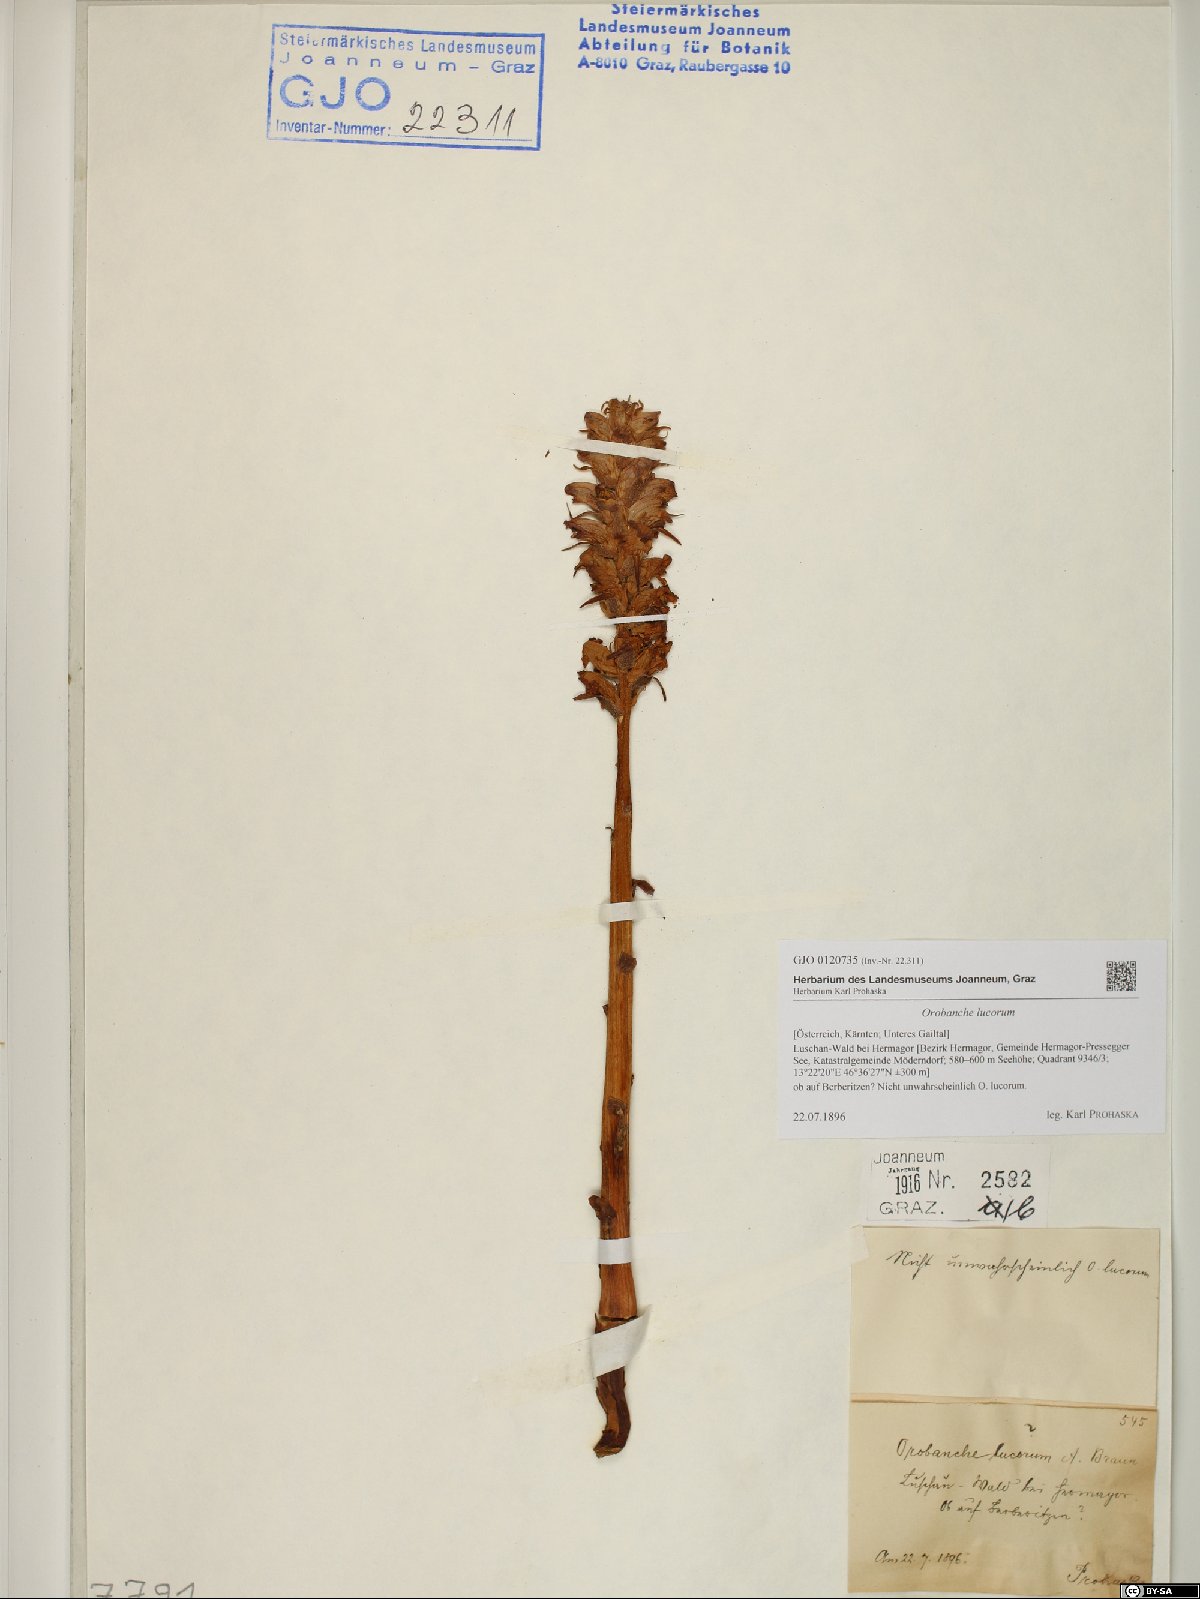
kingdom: Plantae
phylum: Tracheophyta
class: Magnoliopsida
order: Lamiales
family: Orobanchaceae
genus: Orobanche
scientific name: Orobanche lucorum
